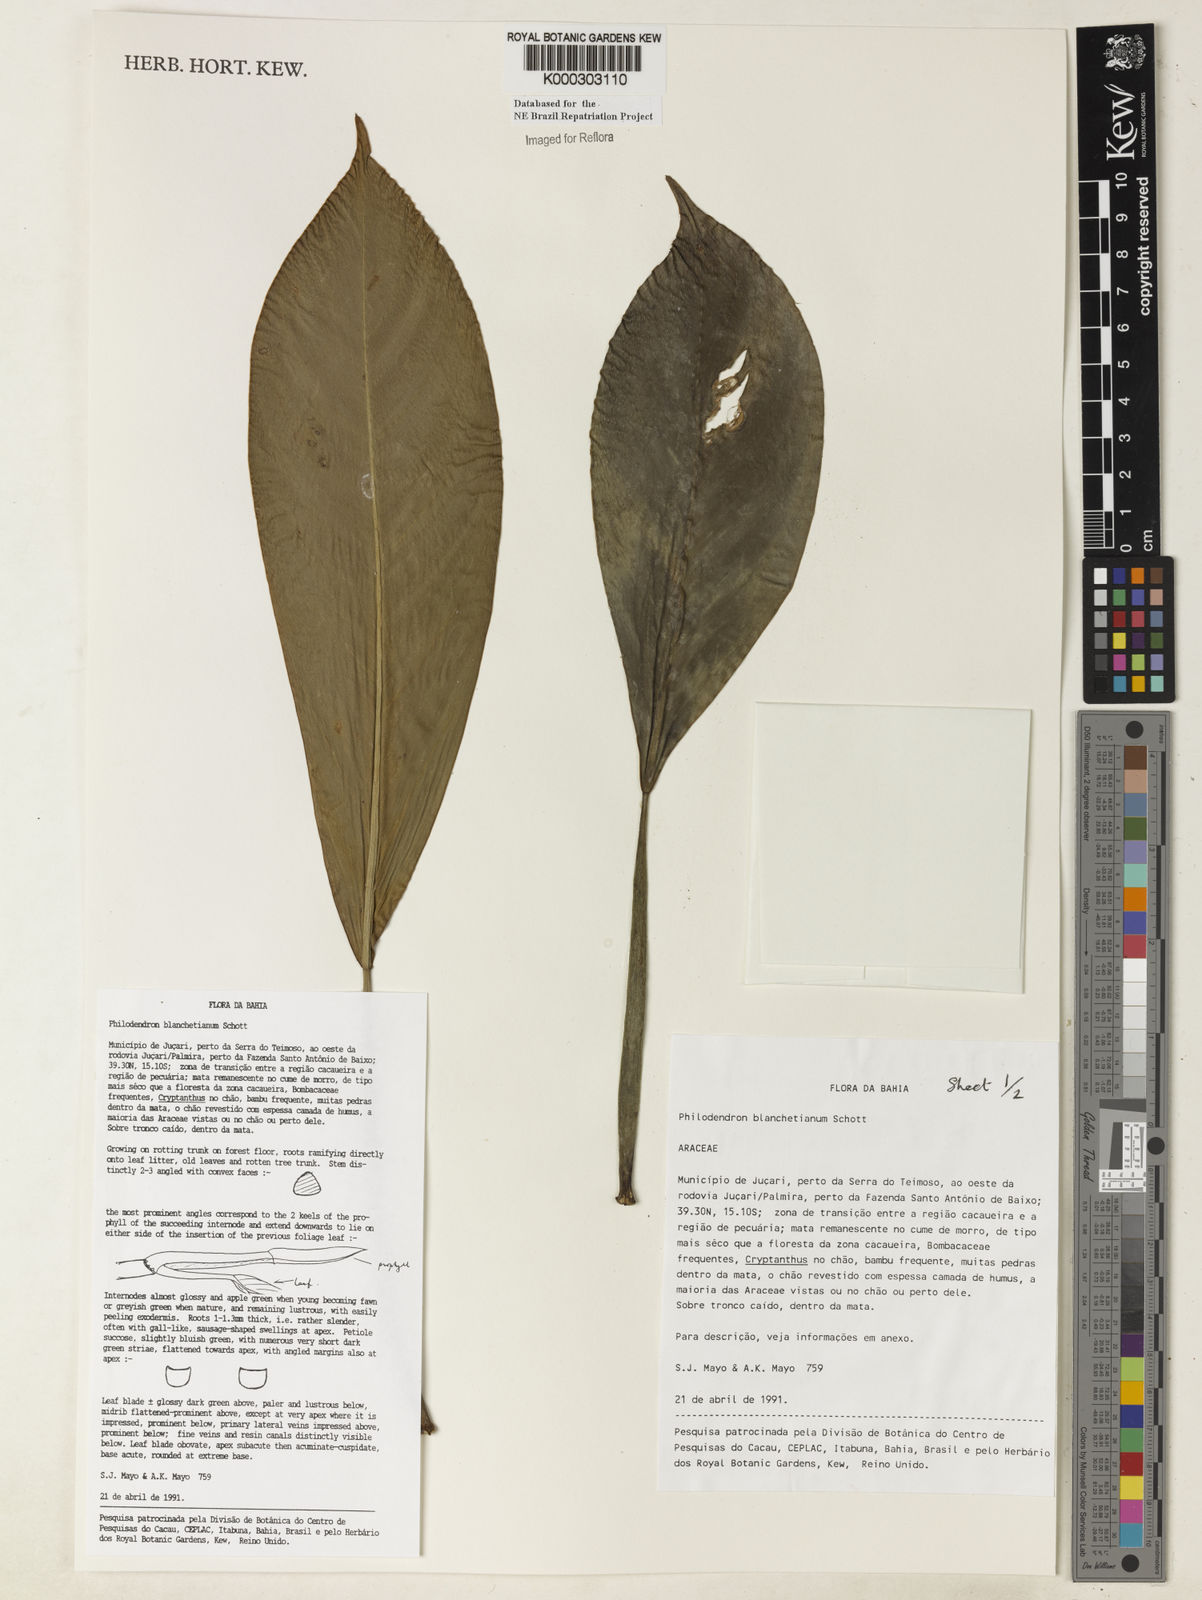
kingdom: Plantae
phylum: Tracheophyta
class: Liliopsida
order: Alismatales
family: Araceae
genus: Philodendron
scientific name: Philodendron blanchetianum
